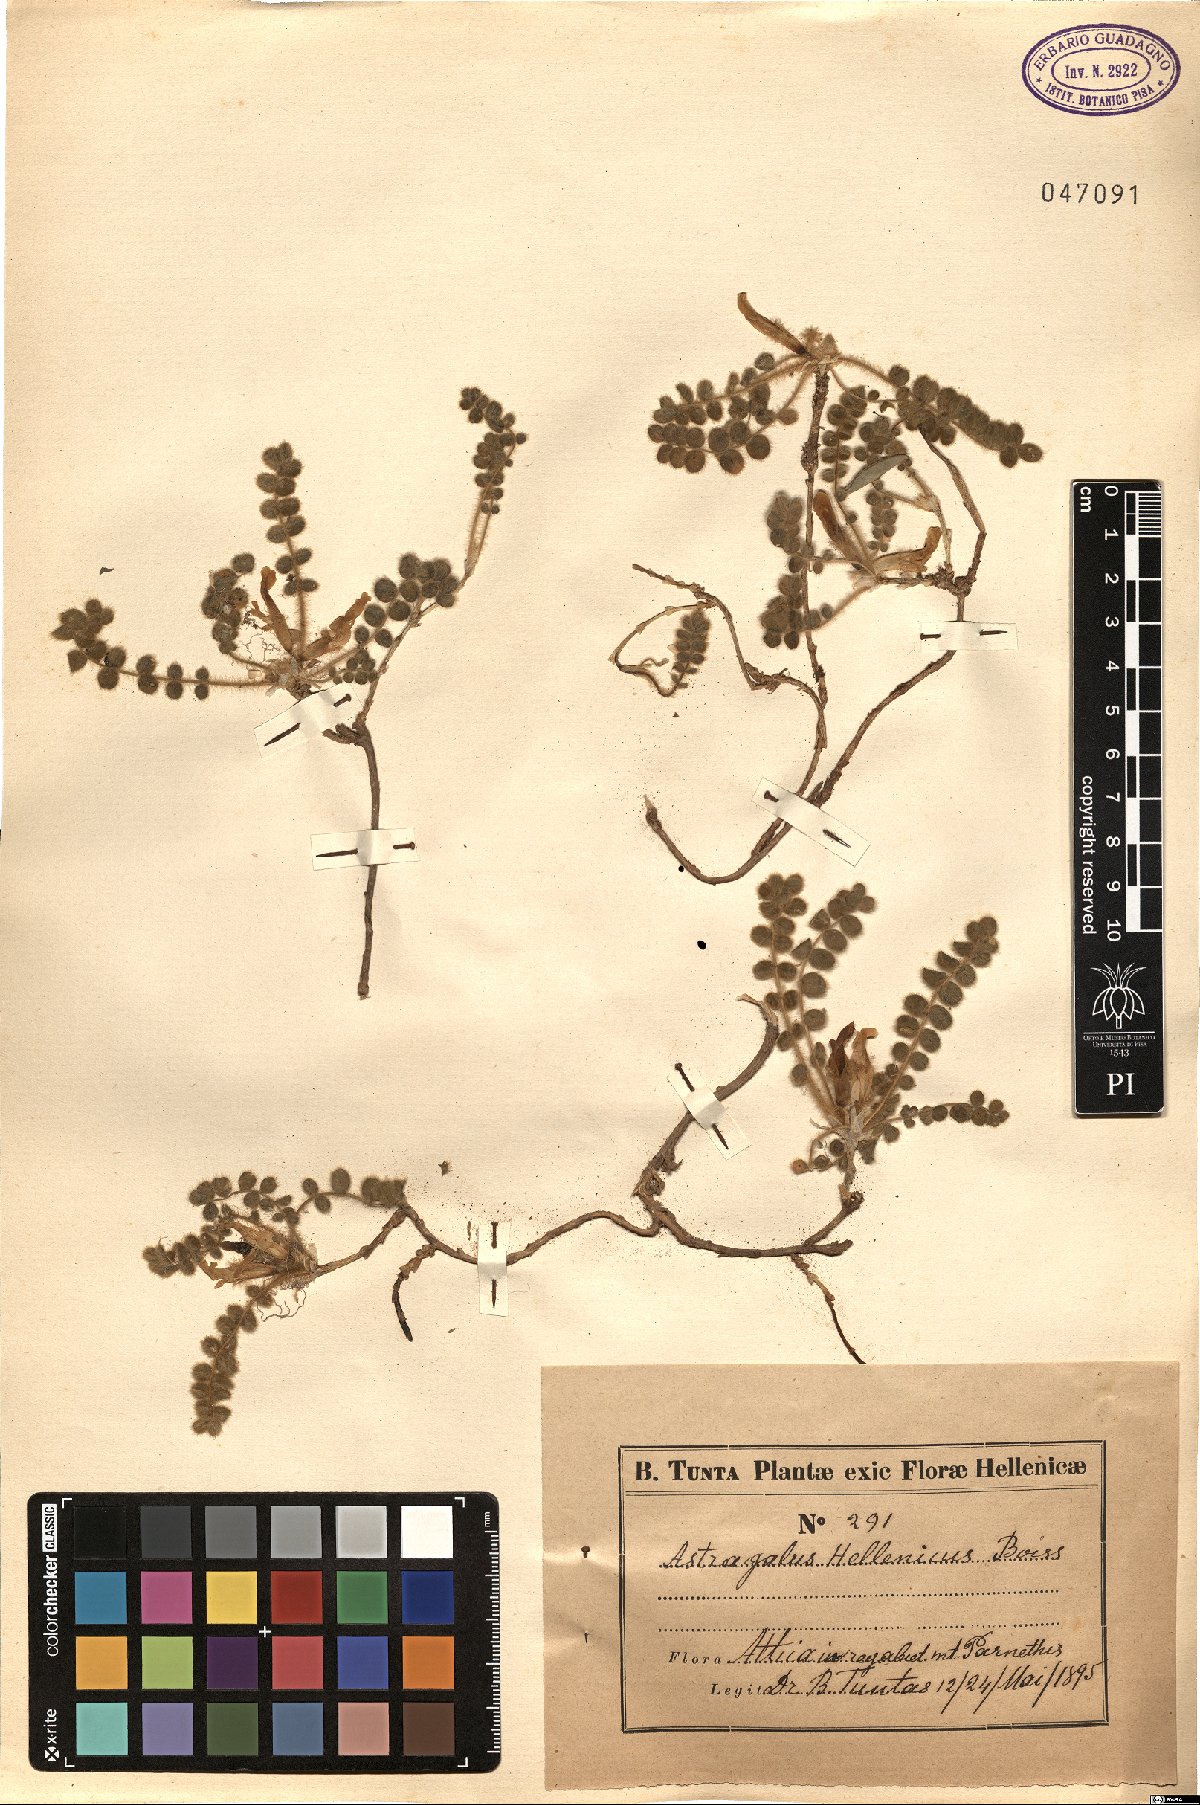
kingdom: Plantae
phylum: Tracheophyta
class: Magnoliopsida
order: Fabales
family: Fabaceae
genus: Astragalus
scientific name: Astragalus exscapus
